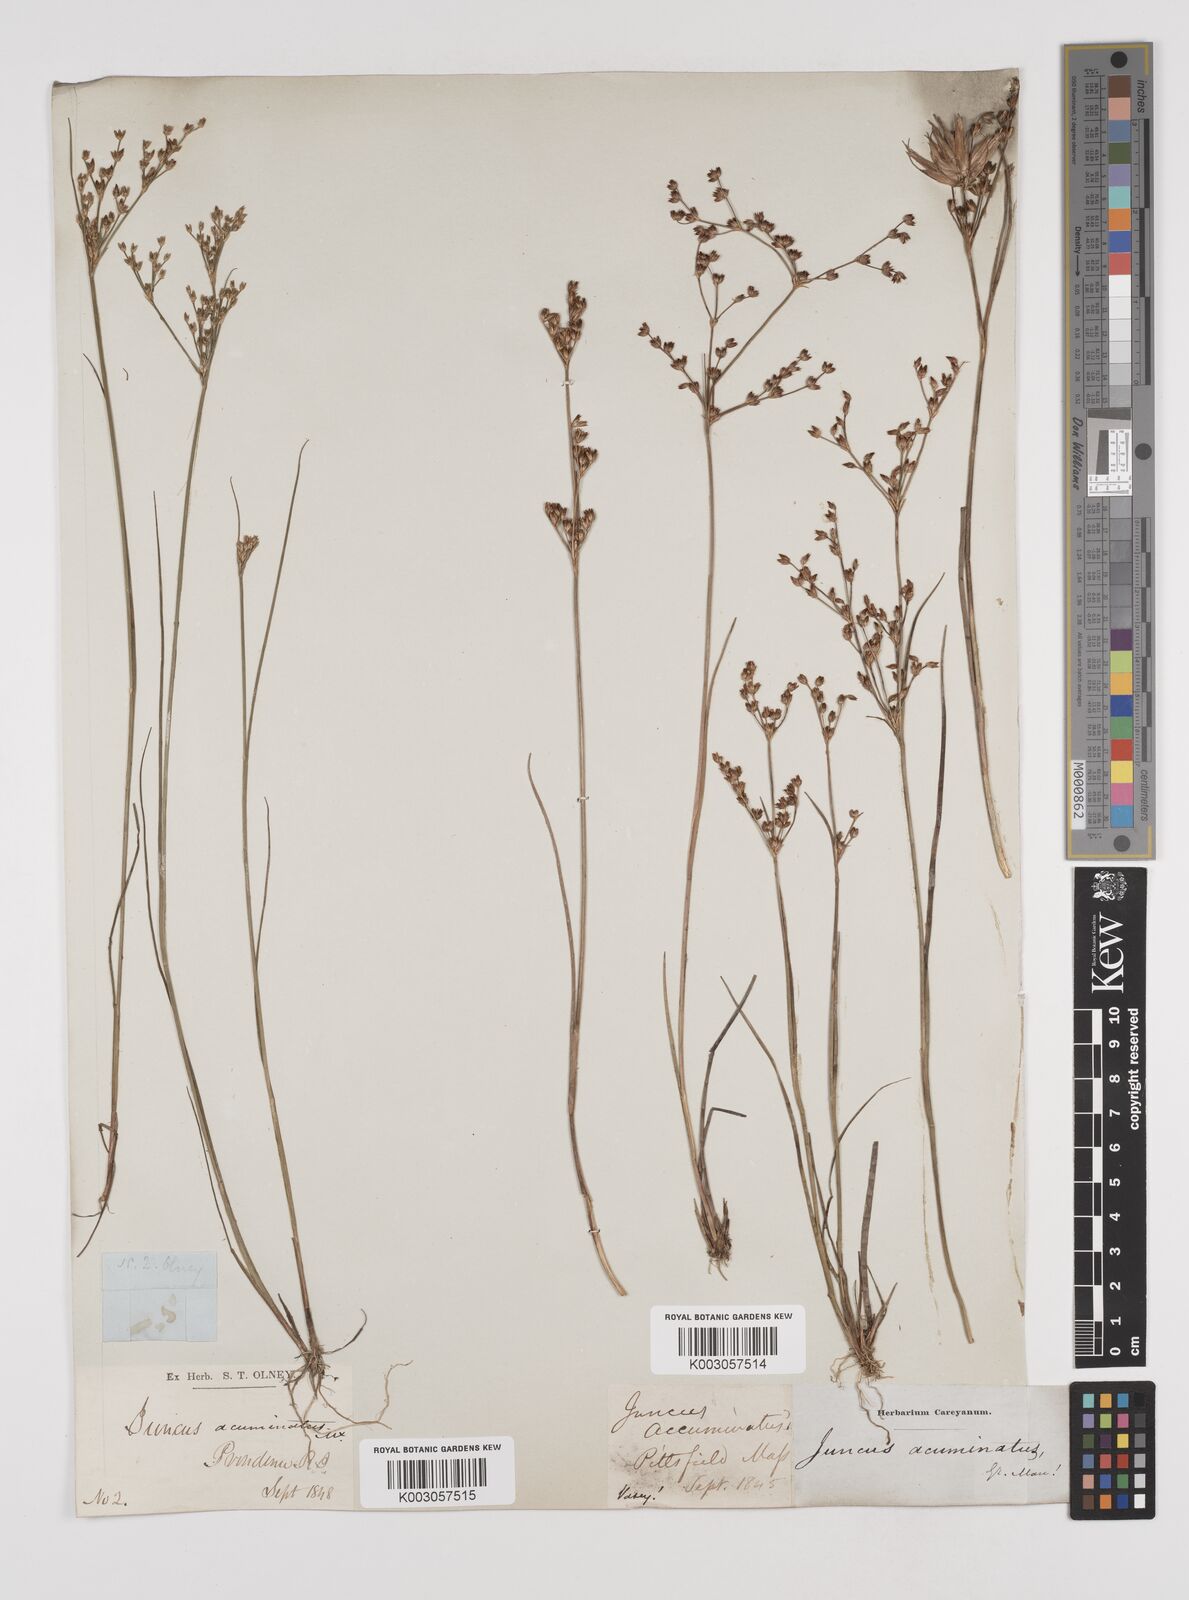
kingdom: Plantae
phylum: Tracheophyta
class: Liliopsida
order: Poales
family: Juncaceae
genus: Juncus
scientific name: Juncus debilis
